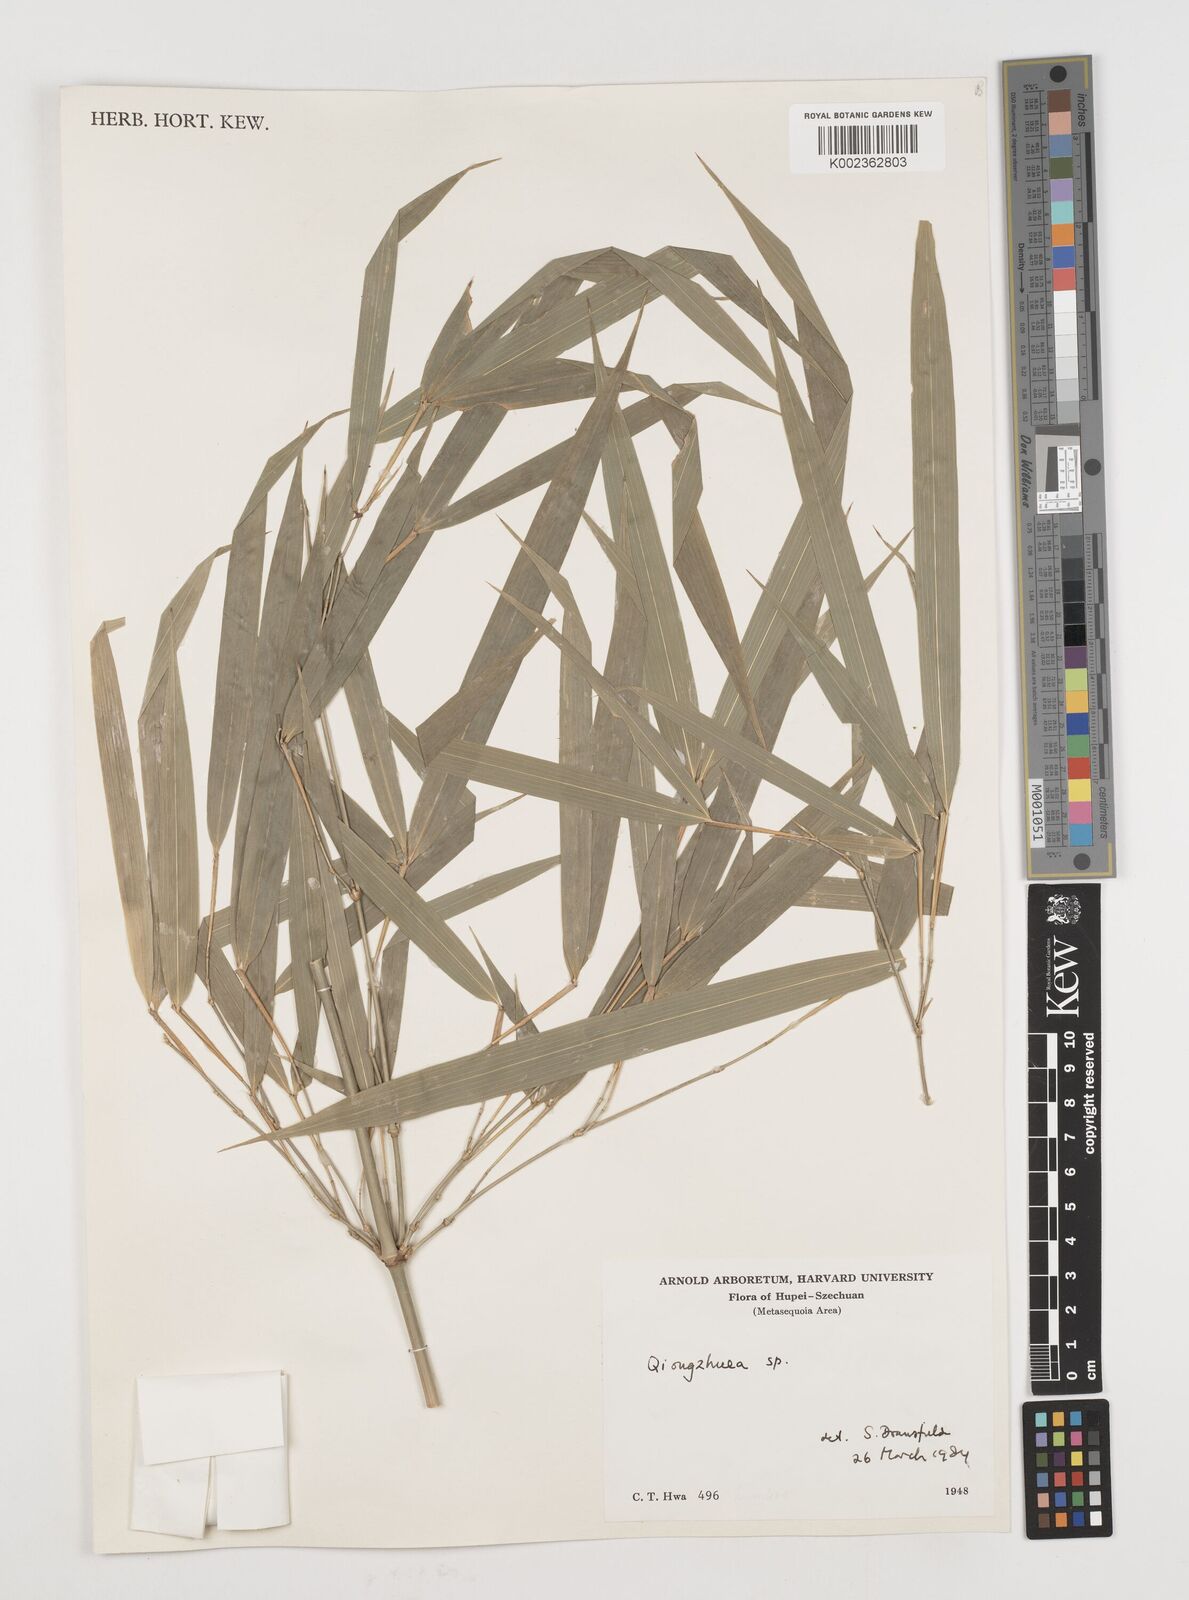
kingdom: Plantae
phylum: Tracheophyta
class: Liliopsida
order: Poales
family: Poaceae
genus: Chimonobambusa
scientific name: Chimonobambusa
